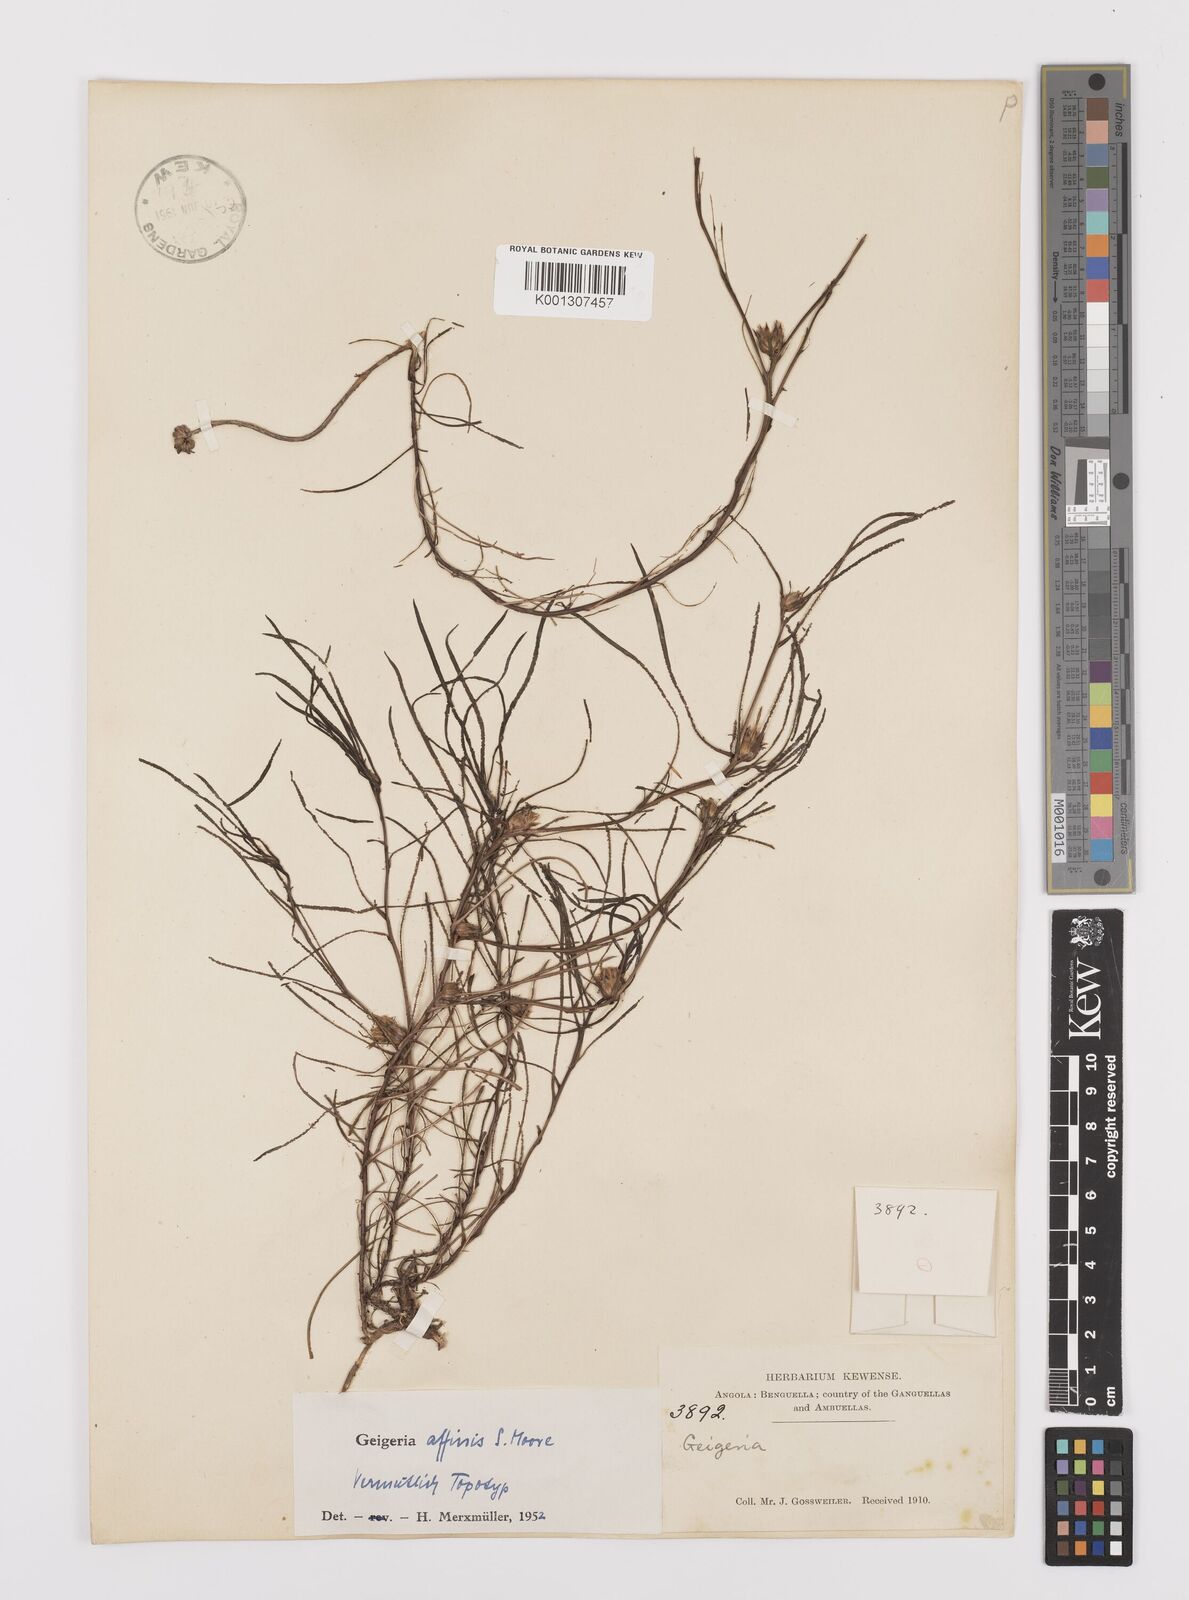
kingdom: Plantae
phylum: Tracheophyta
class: Magnoliopsida
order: Asterales
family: Asteraceae
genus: Geigeria
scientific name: Geigeria affinis
